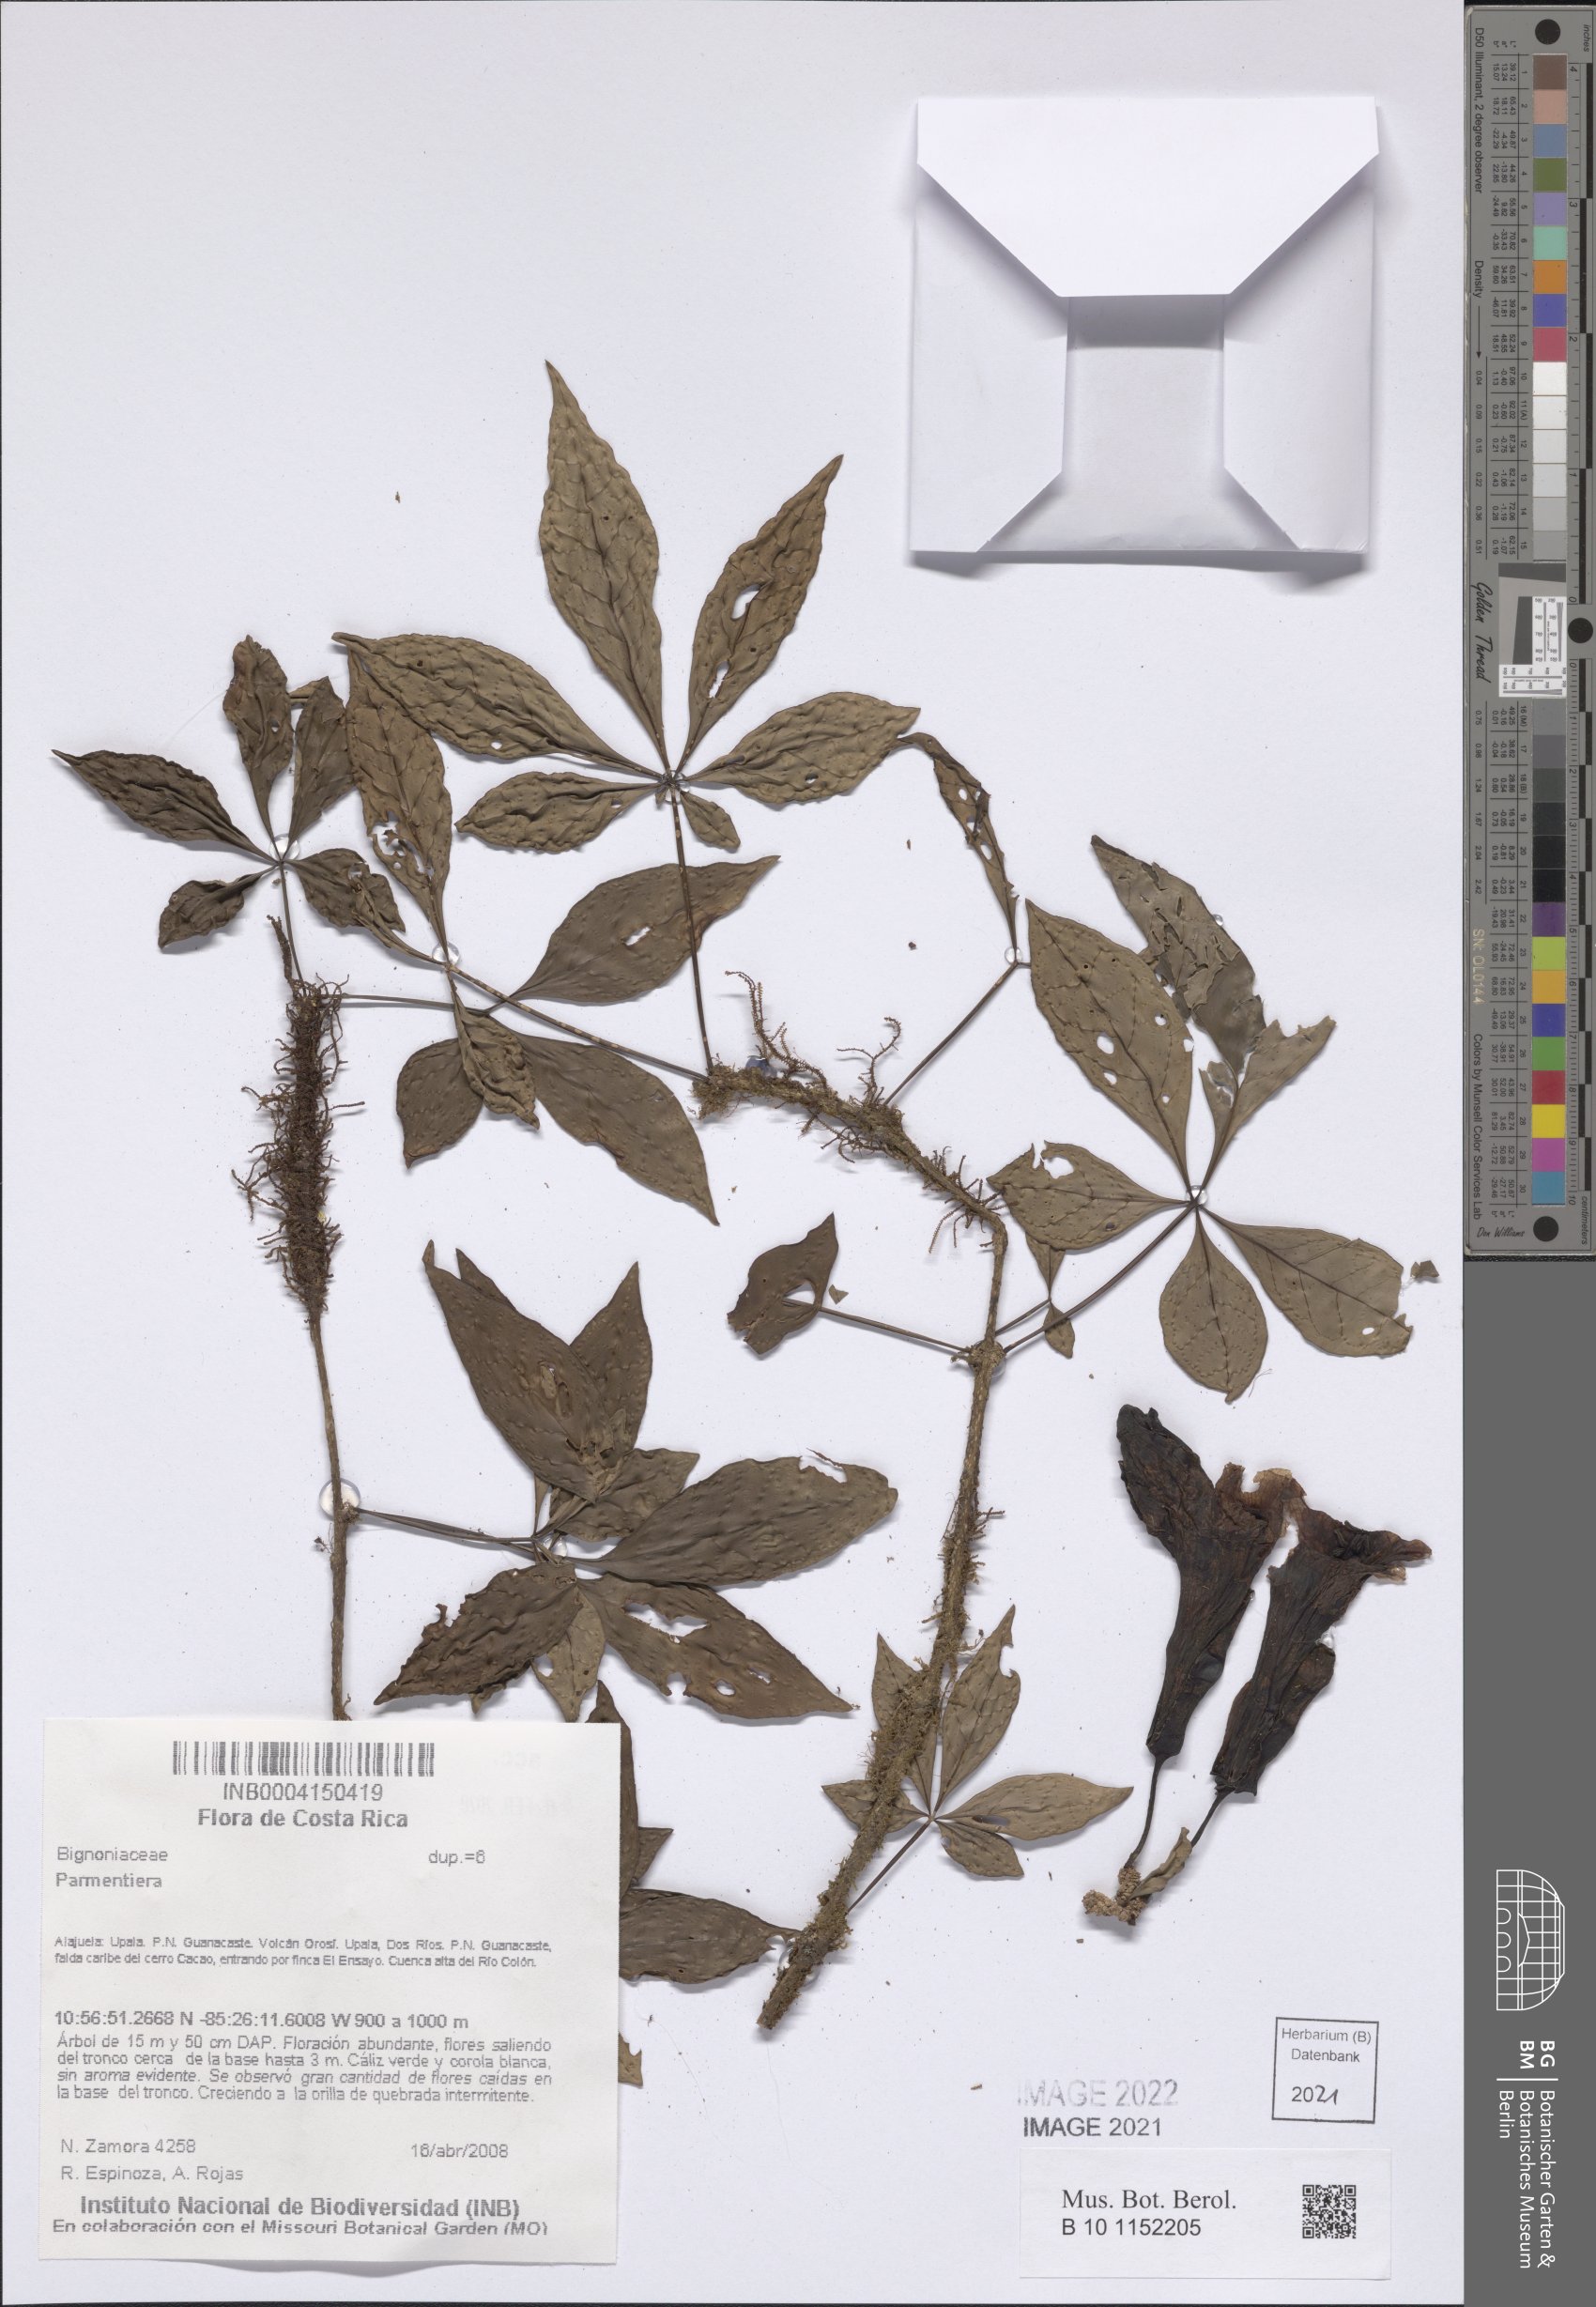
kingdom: Plantae
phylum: Tracheophyta
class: Magnoliopsida
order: Lamiales
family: Bignoniaceae
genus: Parmentiera
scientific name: Parmentiera
